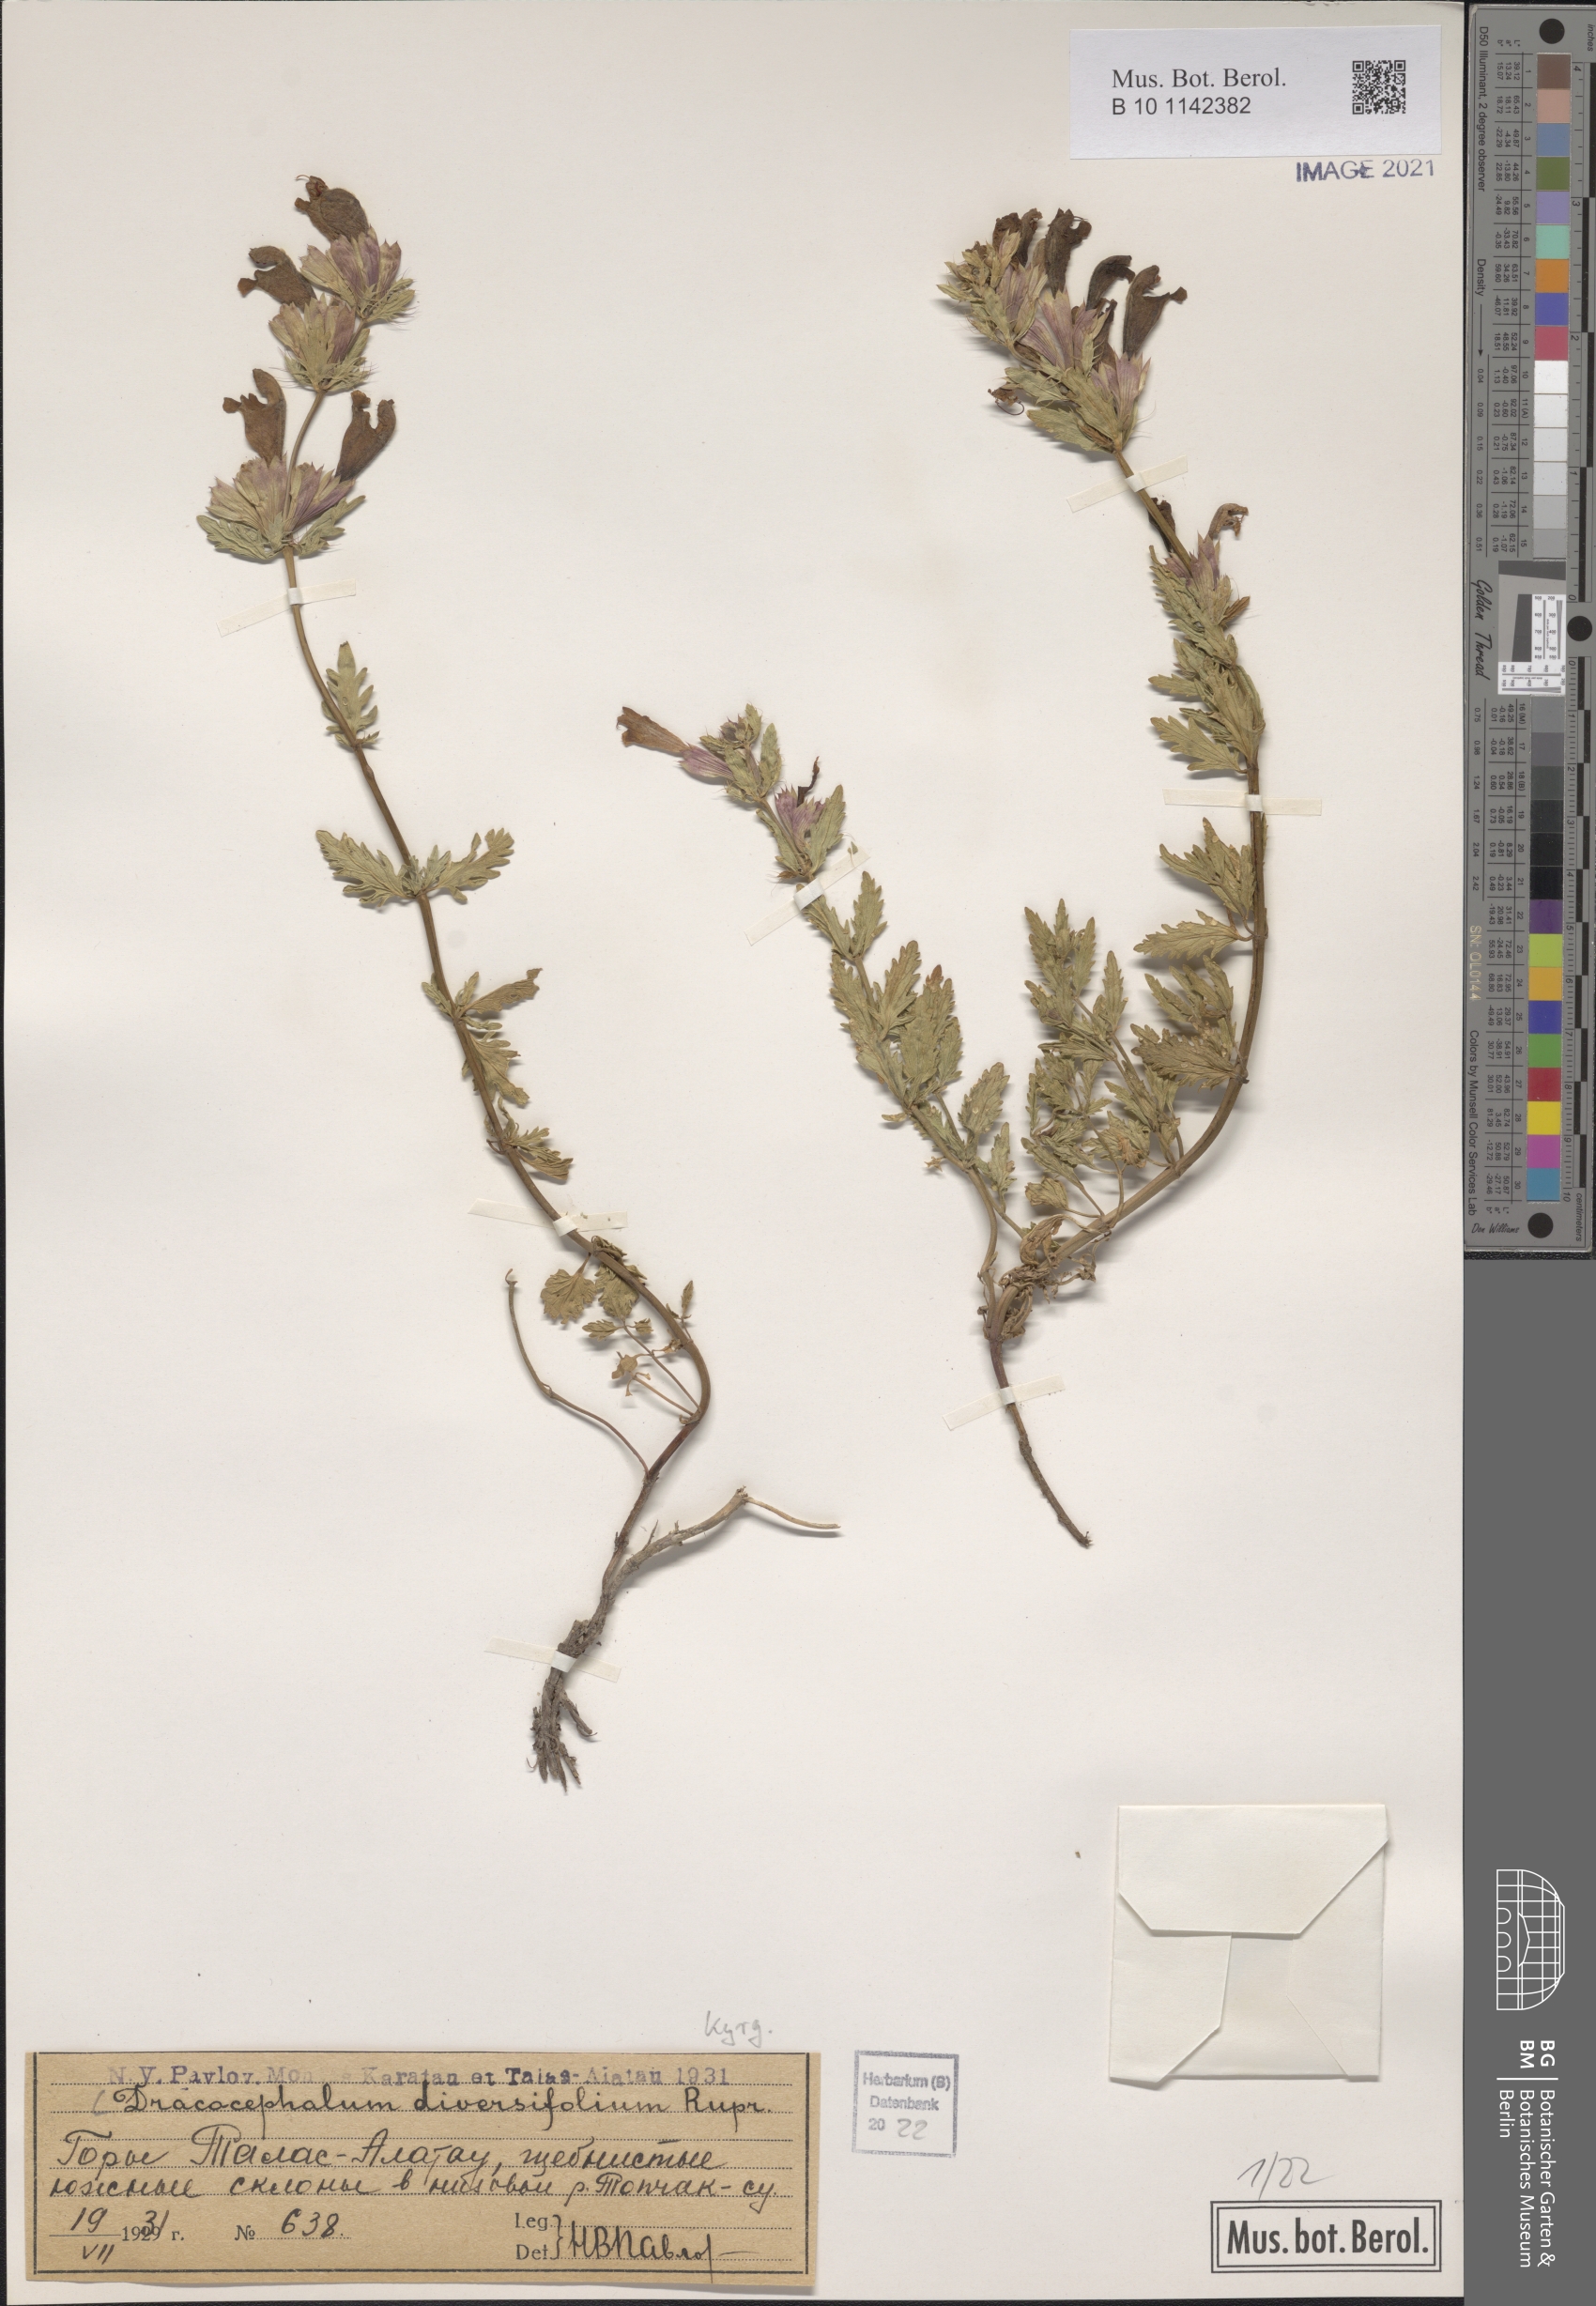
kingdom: Plantae
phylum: Tracheophyta
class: Magnoliopsida
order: Lamiales
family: Lamiaceae
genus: Dracocephalum
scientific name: Dracocephalum diversifolium
